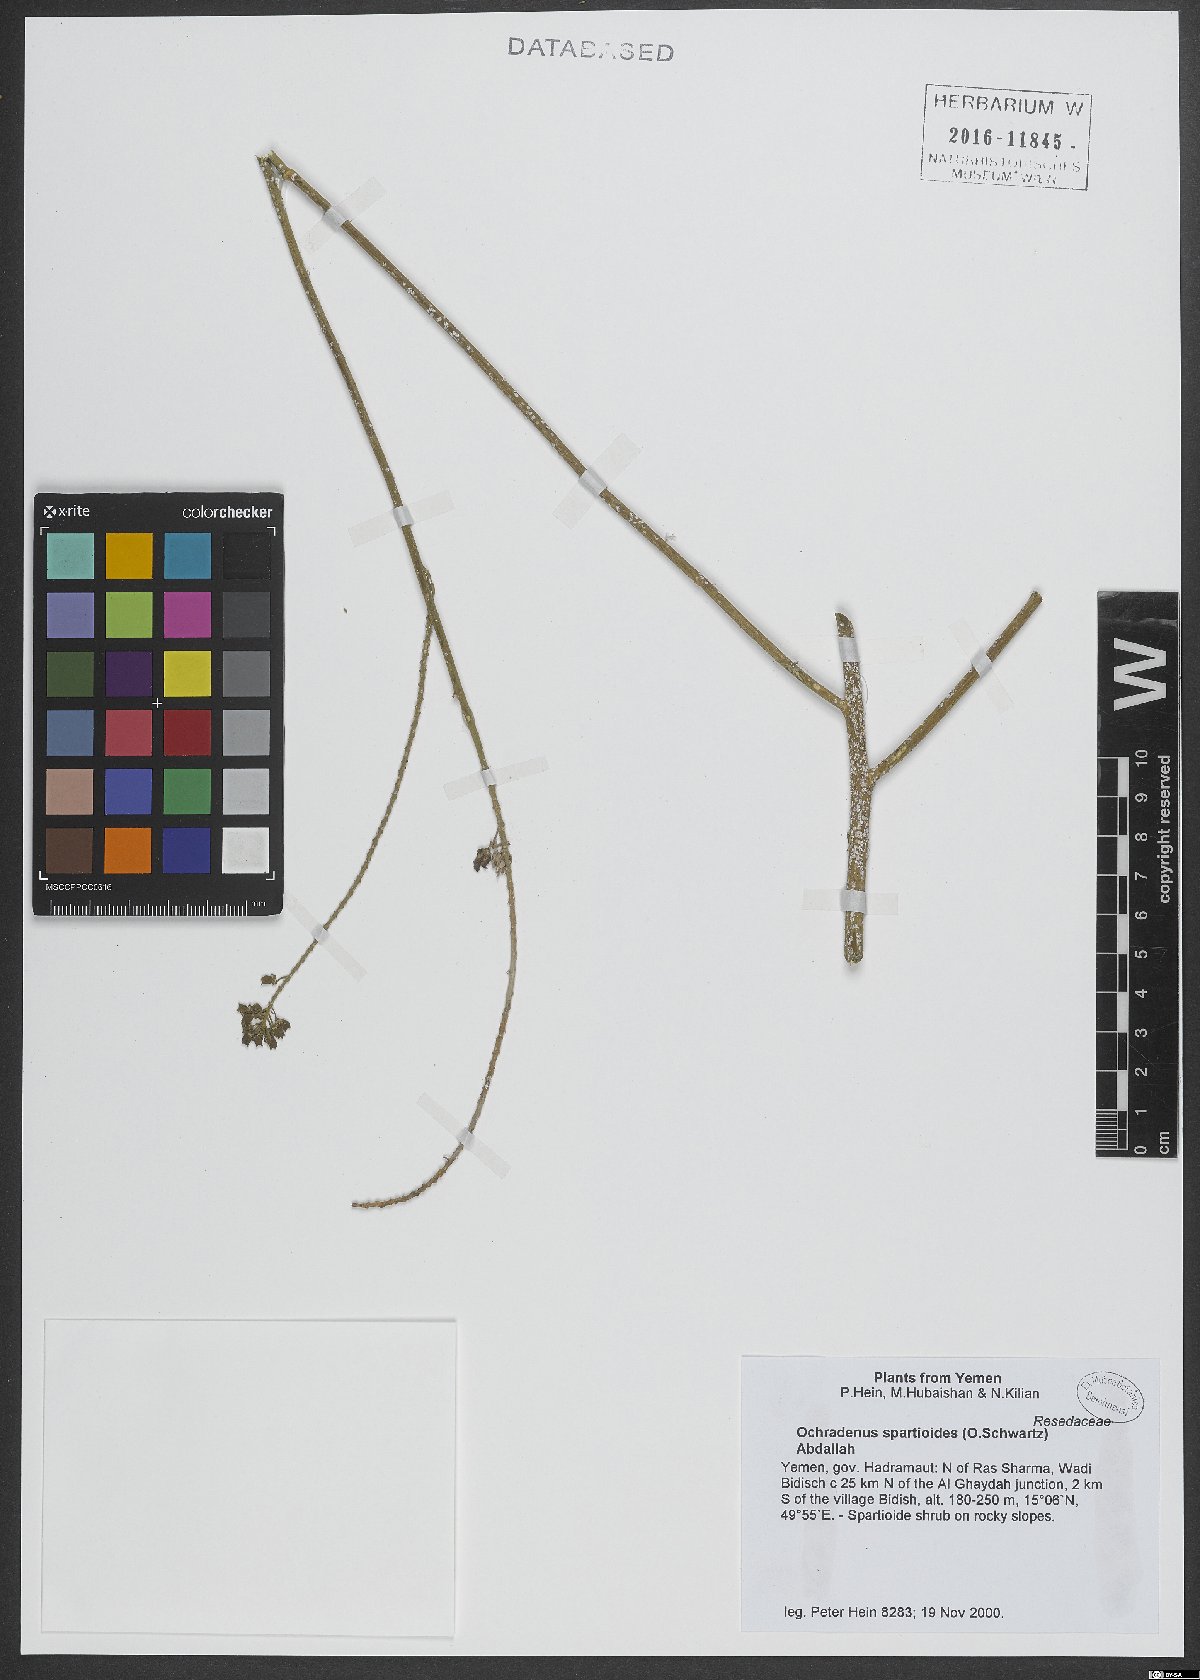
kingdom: Plantae
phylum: Tracheophyta
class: Magnoliopsida
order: Brassicales
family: Resedaceae
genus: Ochradenus
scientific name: Ochradenus spartioides
